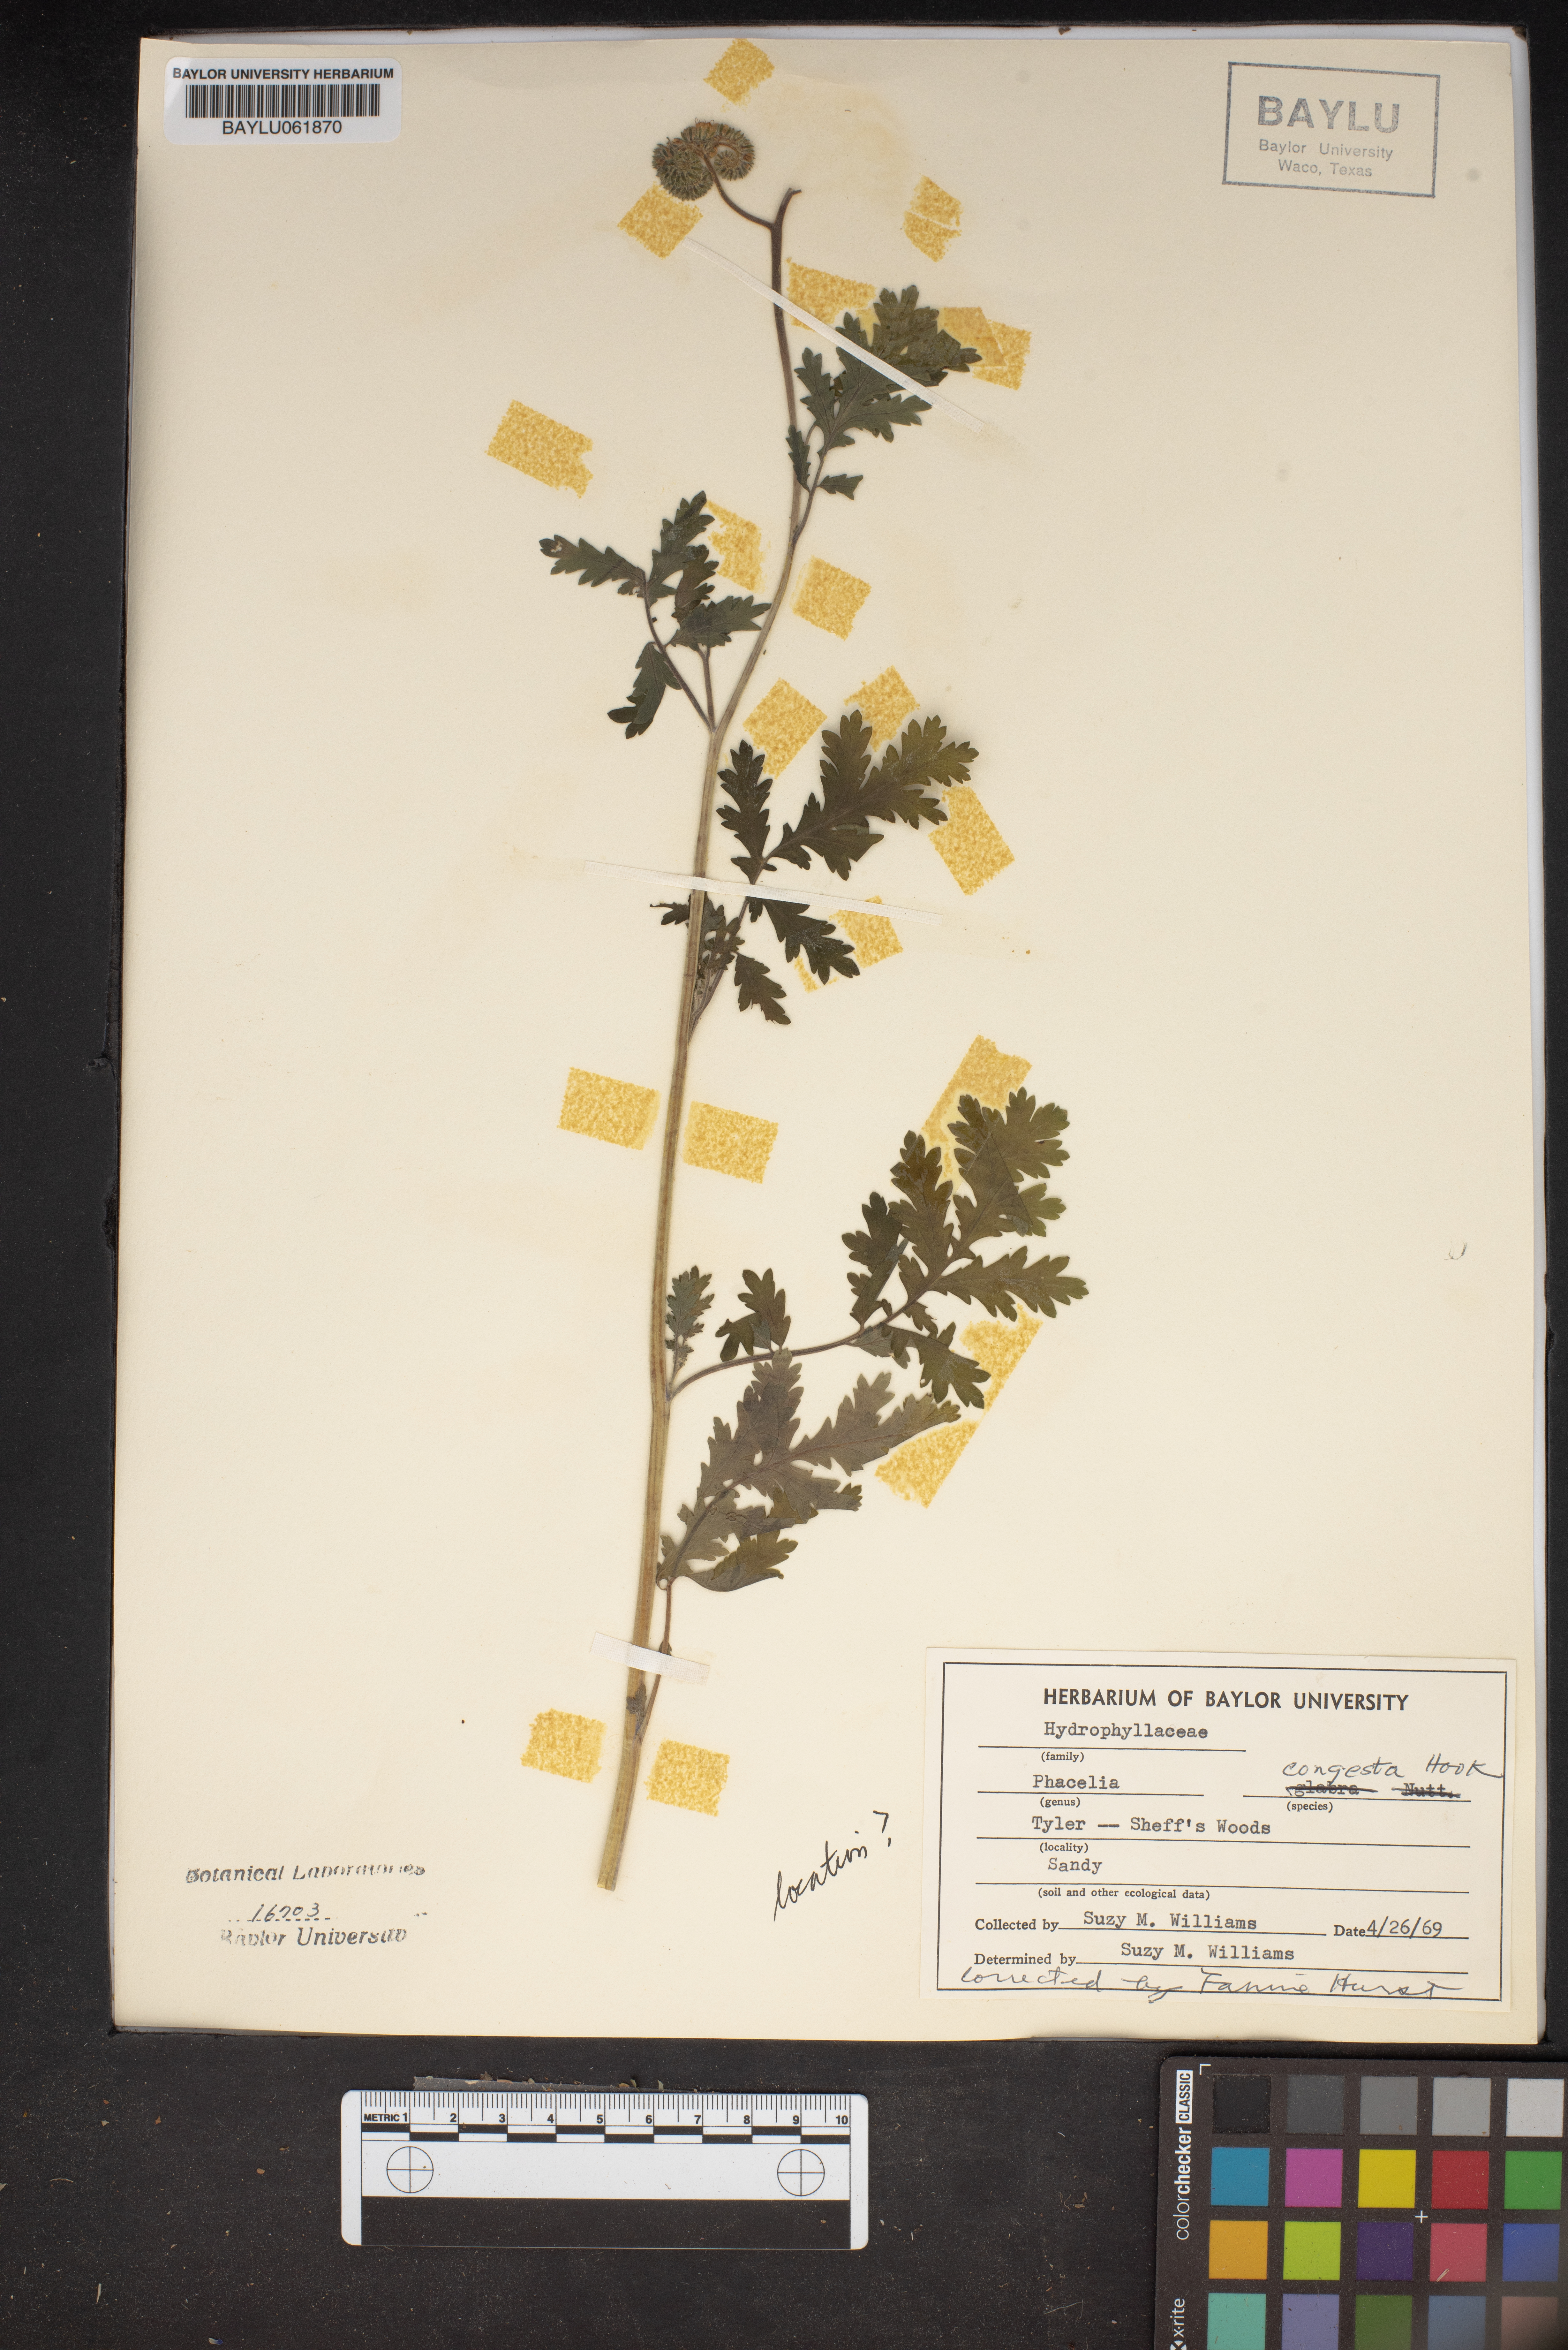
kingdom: Plantae
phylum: Tracheophyta
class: Magnoliopsida
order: Boraginales
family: Hydrophyllaceae
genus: Phacelia
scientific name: Phacelia congesta
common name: Blue curls
